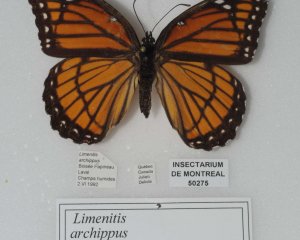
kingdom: Animalia
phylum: Arthropoda
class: Insecta
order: Lepidoptera
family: Nymphalidae
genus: Limenitis
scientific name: Limenitis archippus
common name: Viceroy
